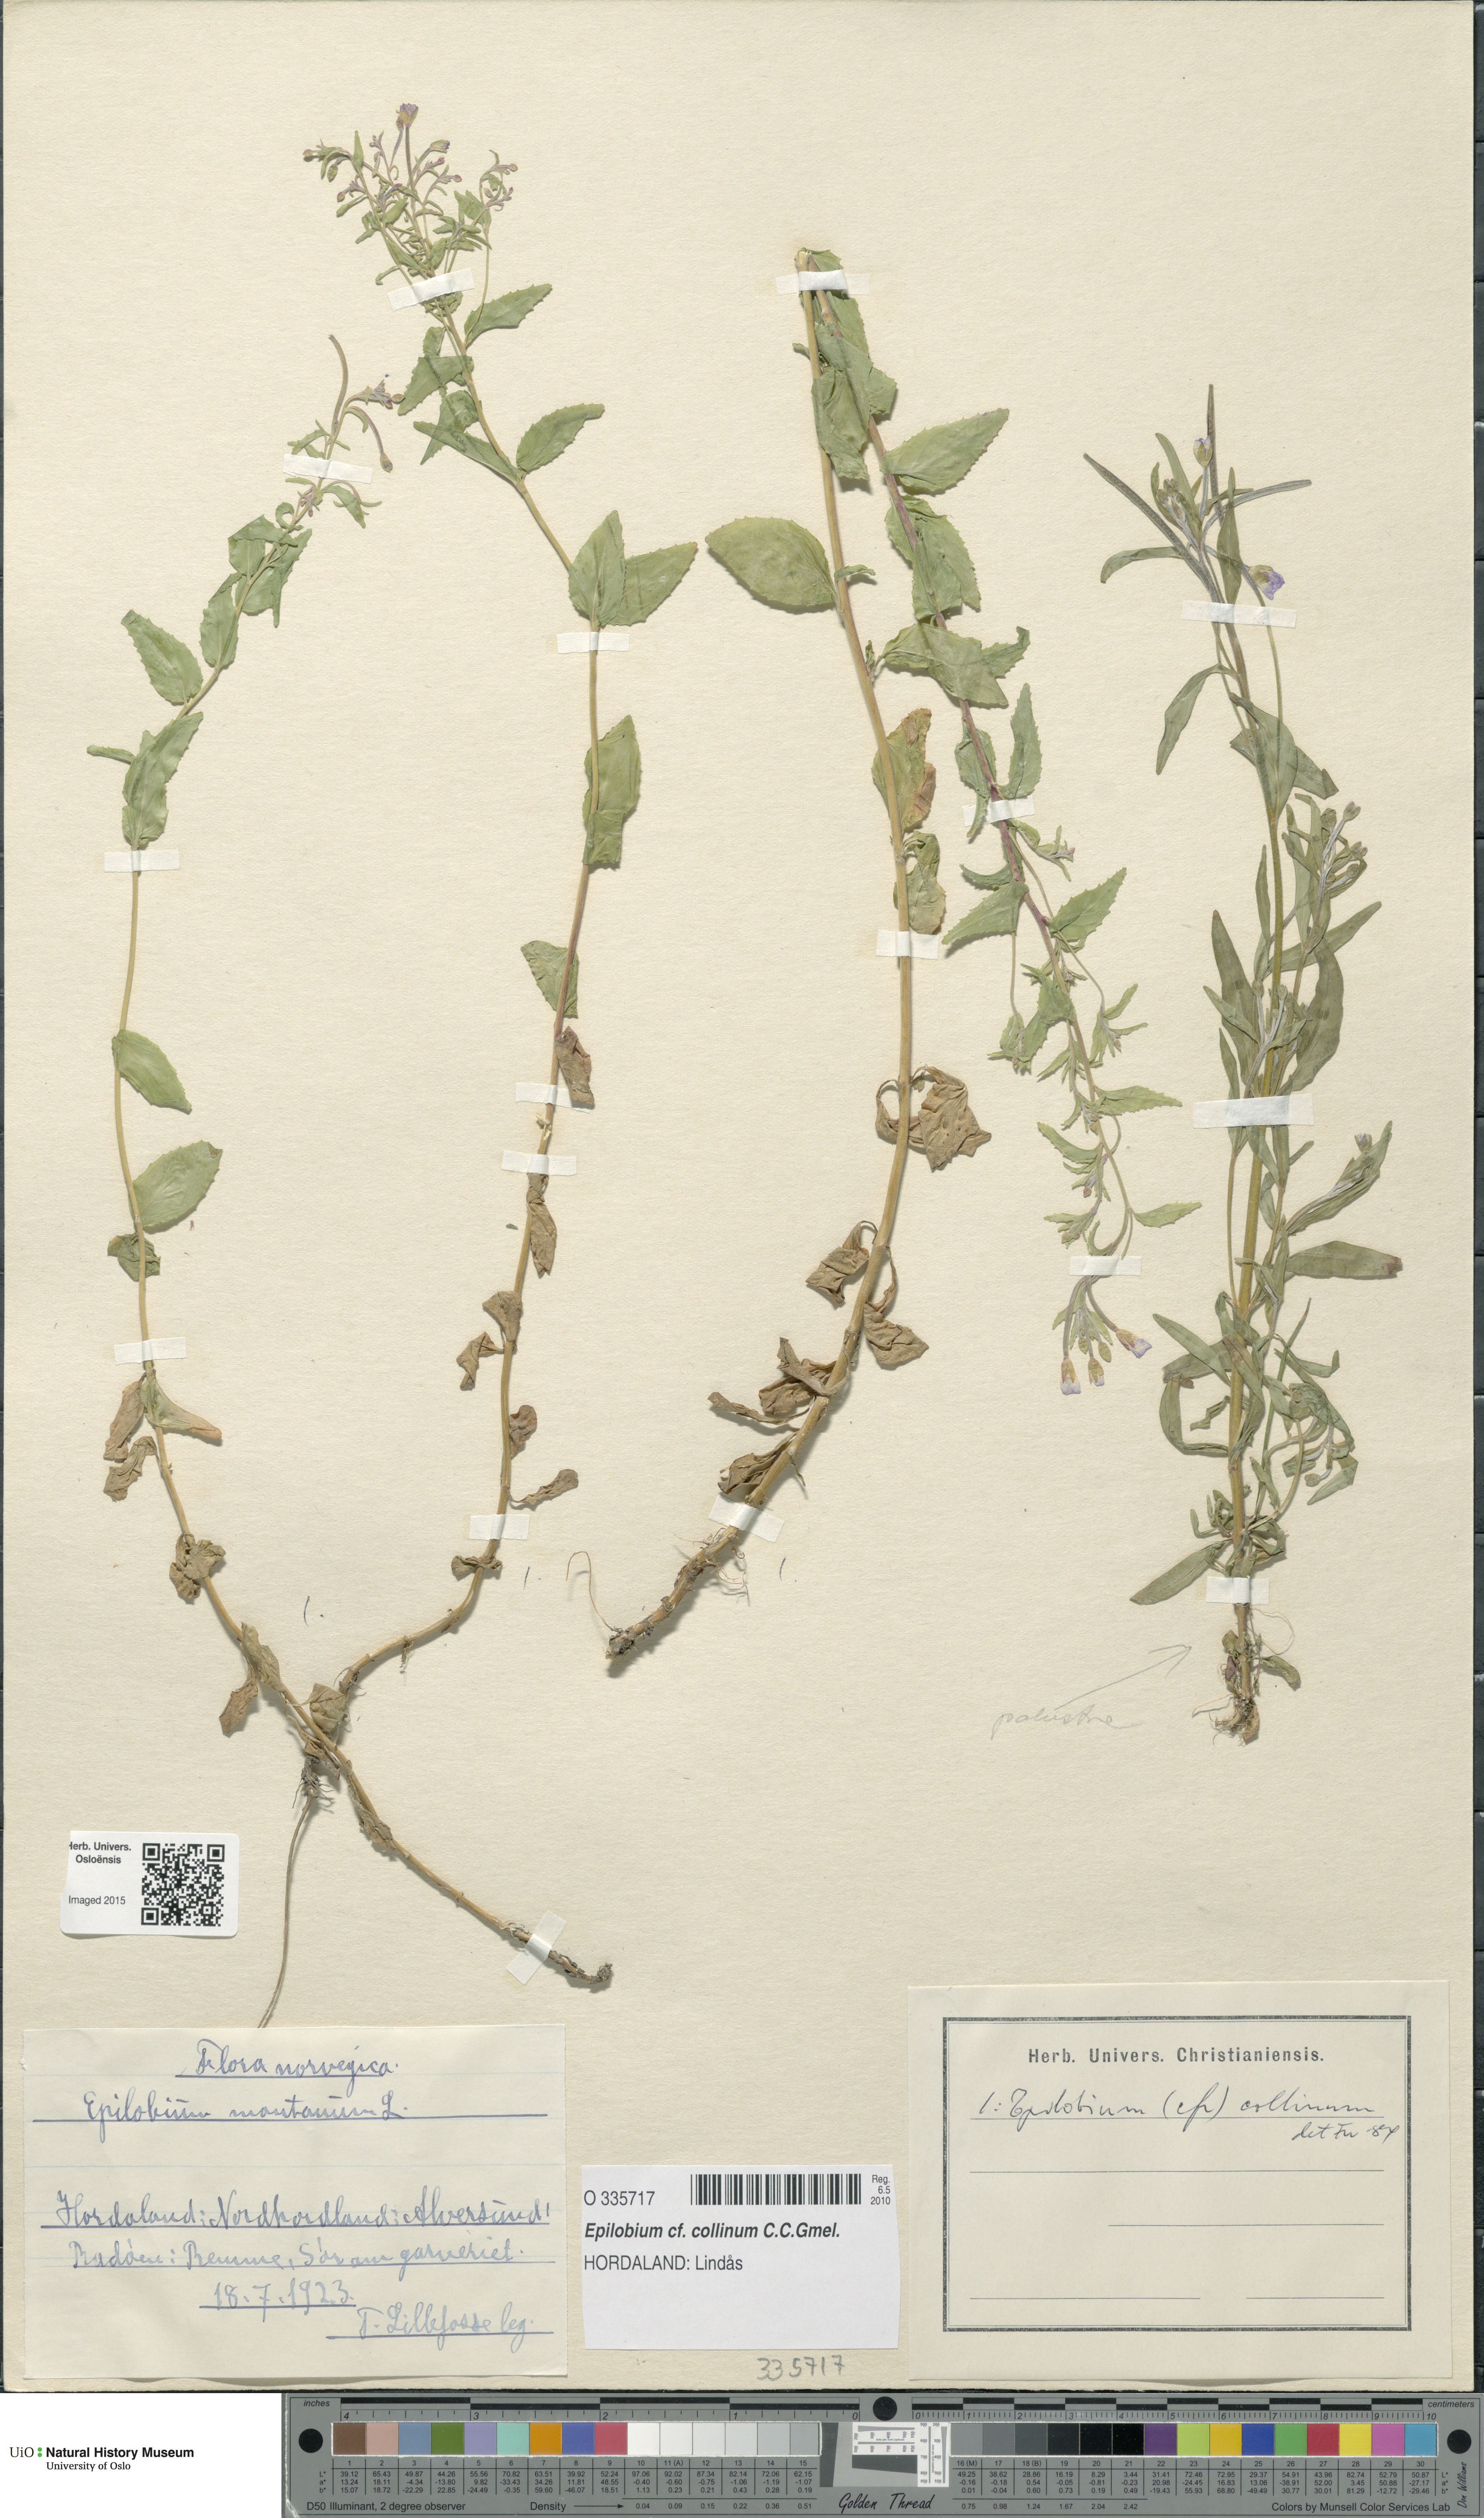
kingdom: Plantae
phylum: Tracheophyta
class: Magnoliopsida
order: Myrtales
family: Onagraceae
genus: Epilobium
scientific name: Epilobium collinum
